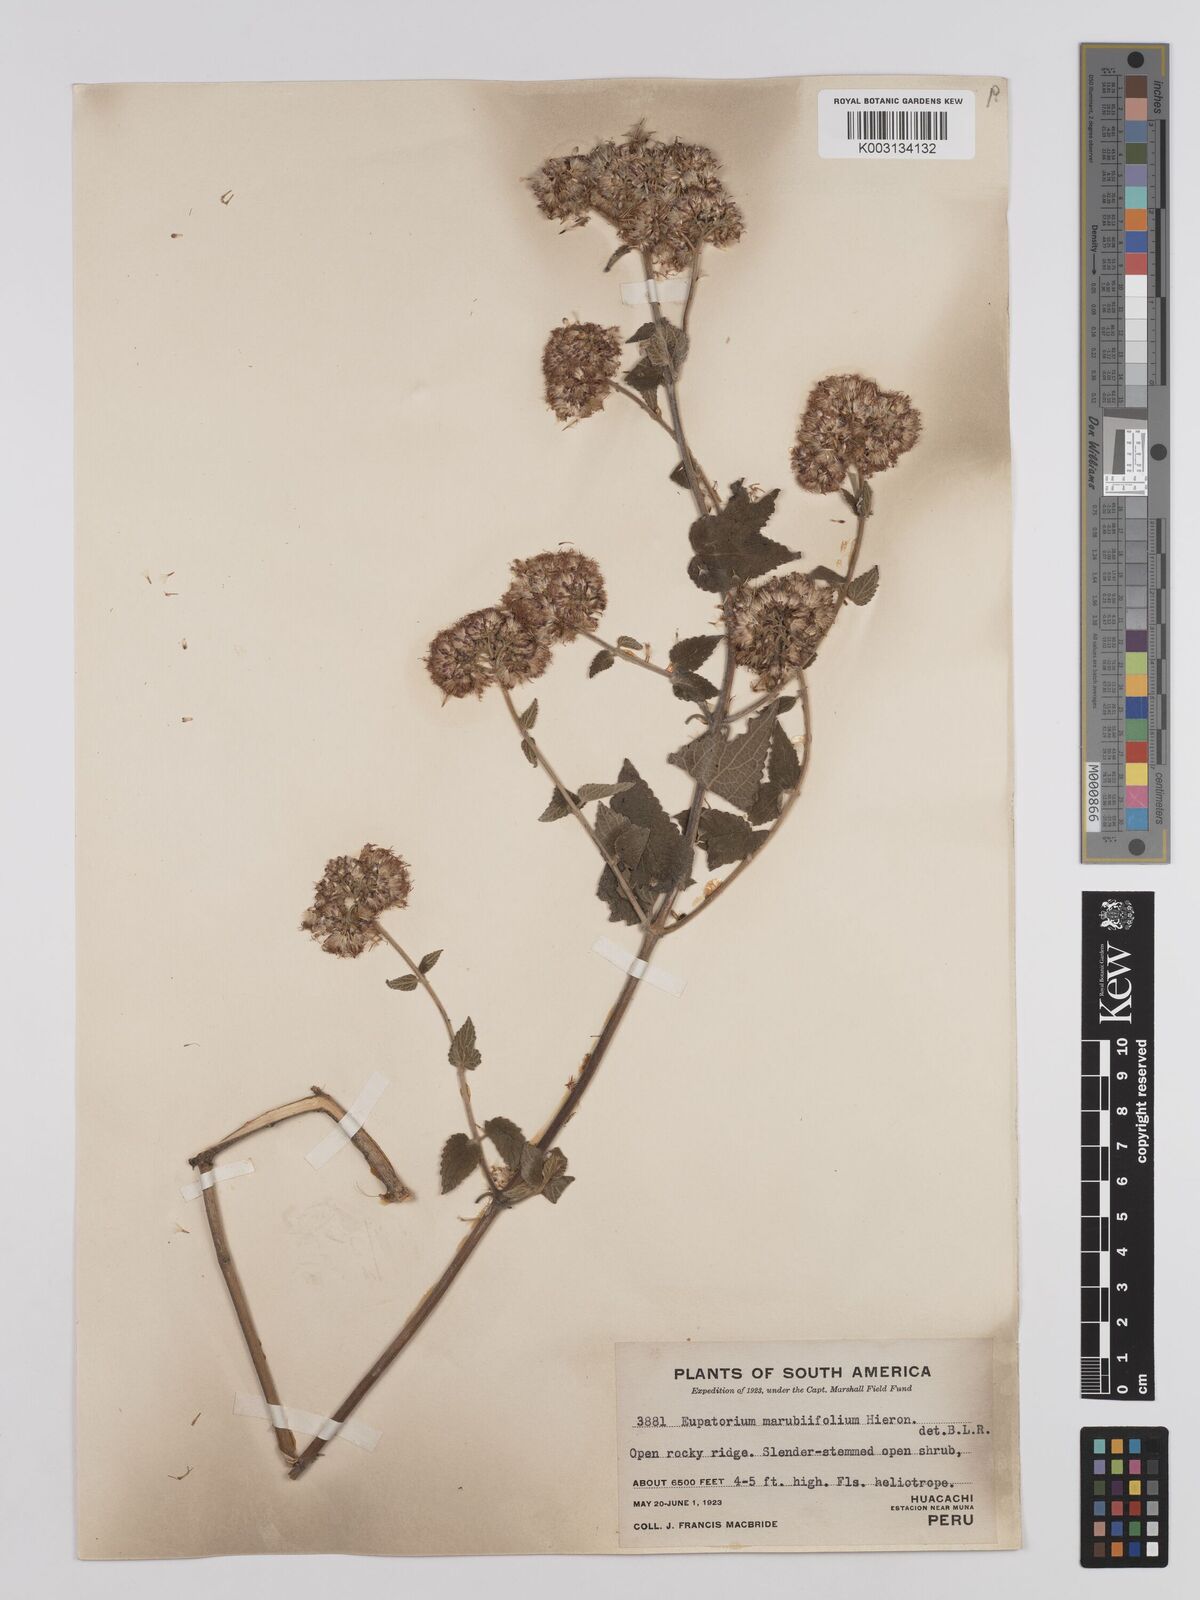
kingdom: Plantae
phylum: Tracheophyta
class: Magnoliopsida
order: Asterales
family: Asteraceae
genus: Cronquistianthus
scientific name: Cronquistianthus marrubiifolius
